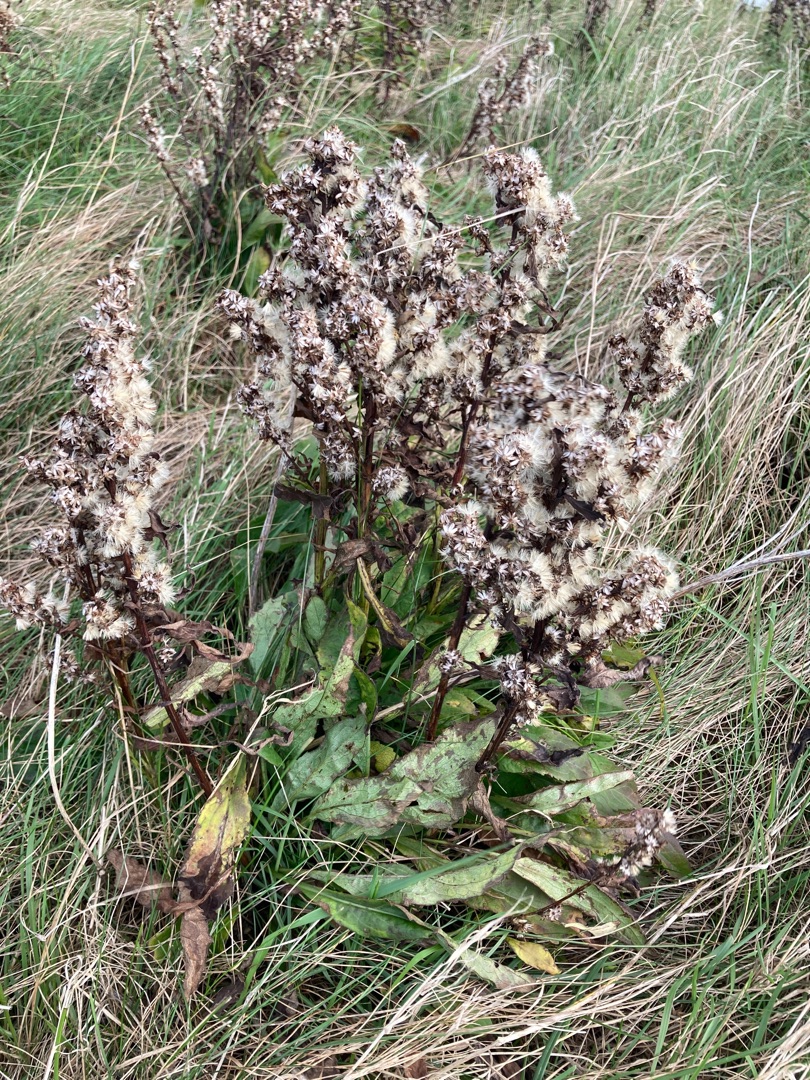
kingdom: Plantae
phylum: Tracheophyta
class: Magnoliopsida
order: Asterales
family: Asteraceae
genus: Solidago
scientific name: Solidago virgaurea
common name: Almindelig gyldenris
